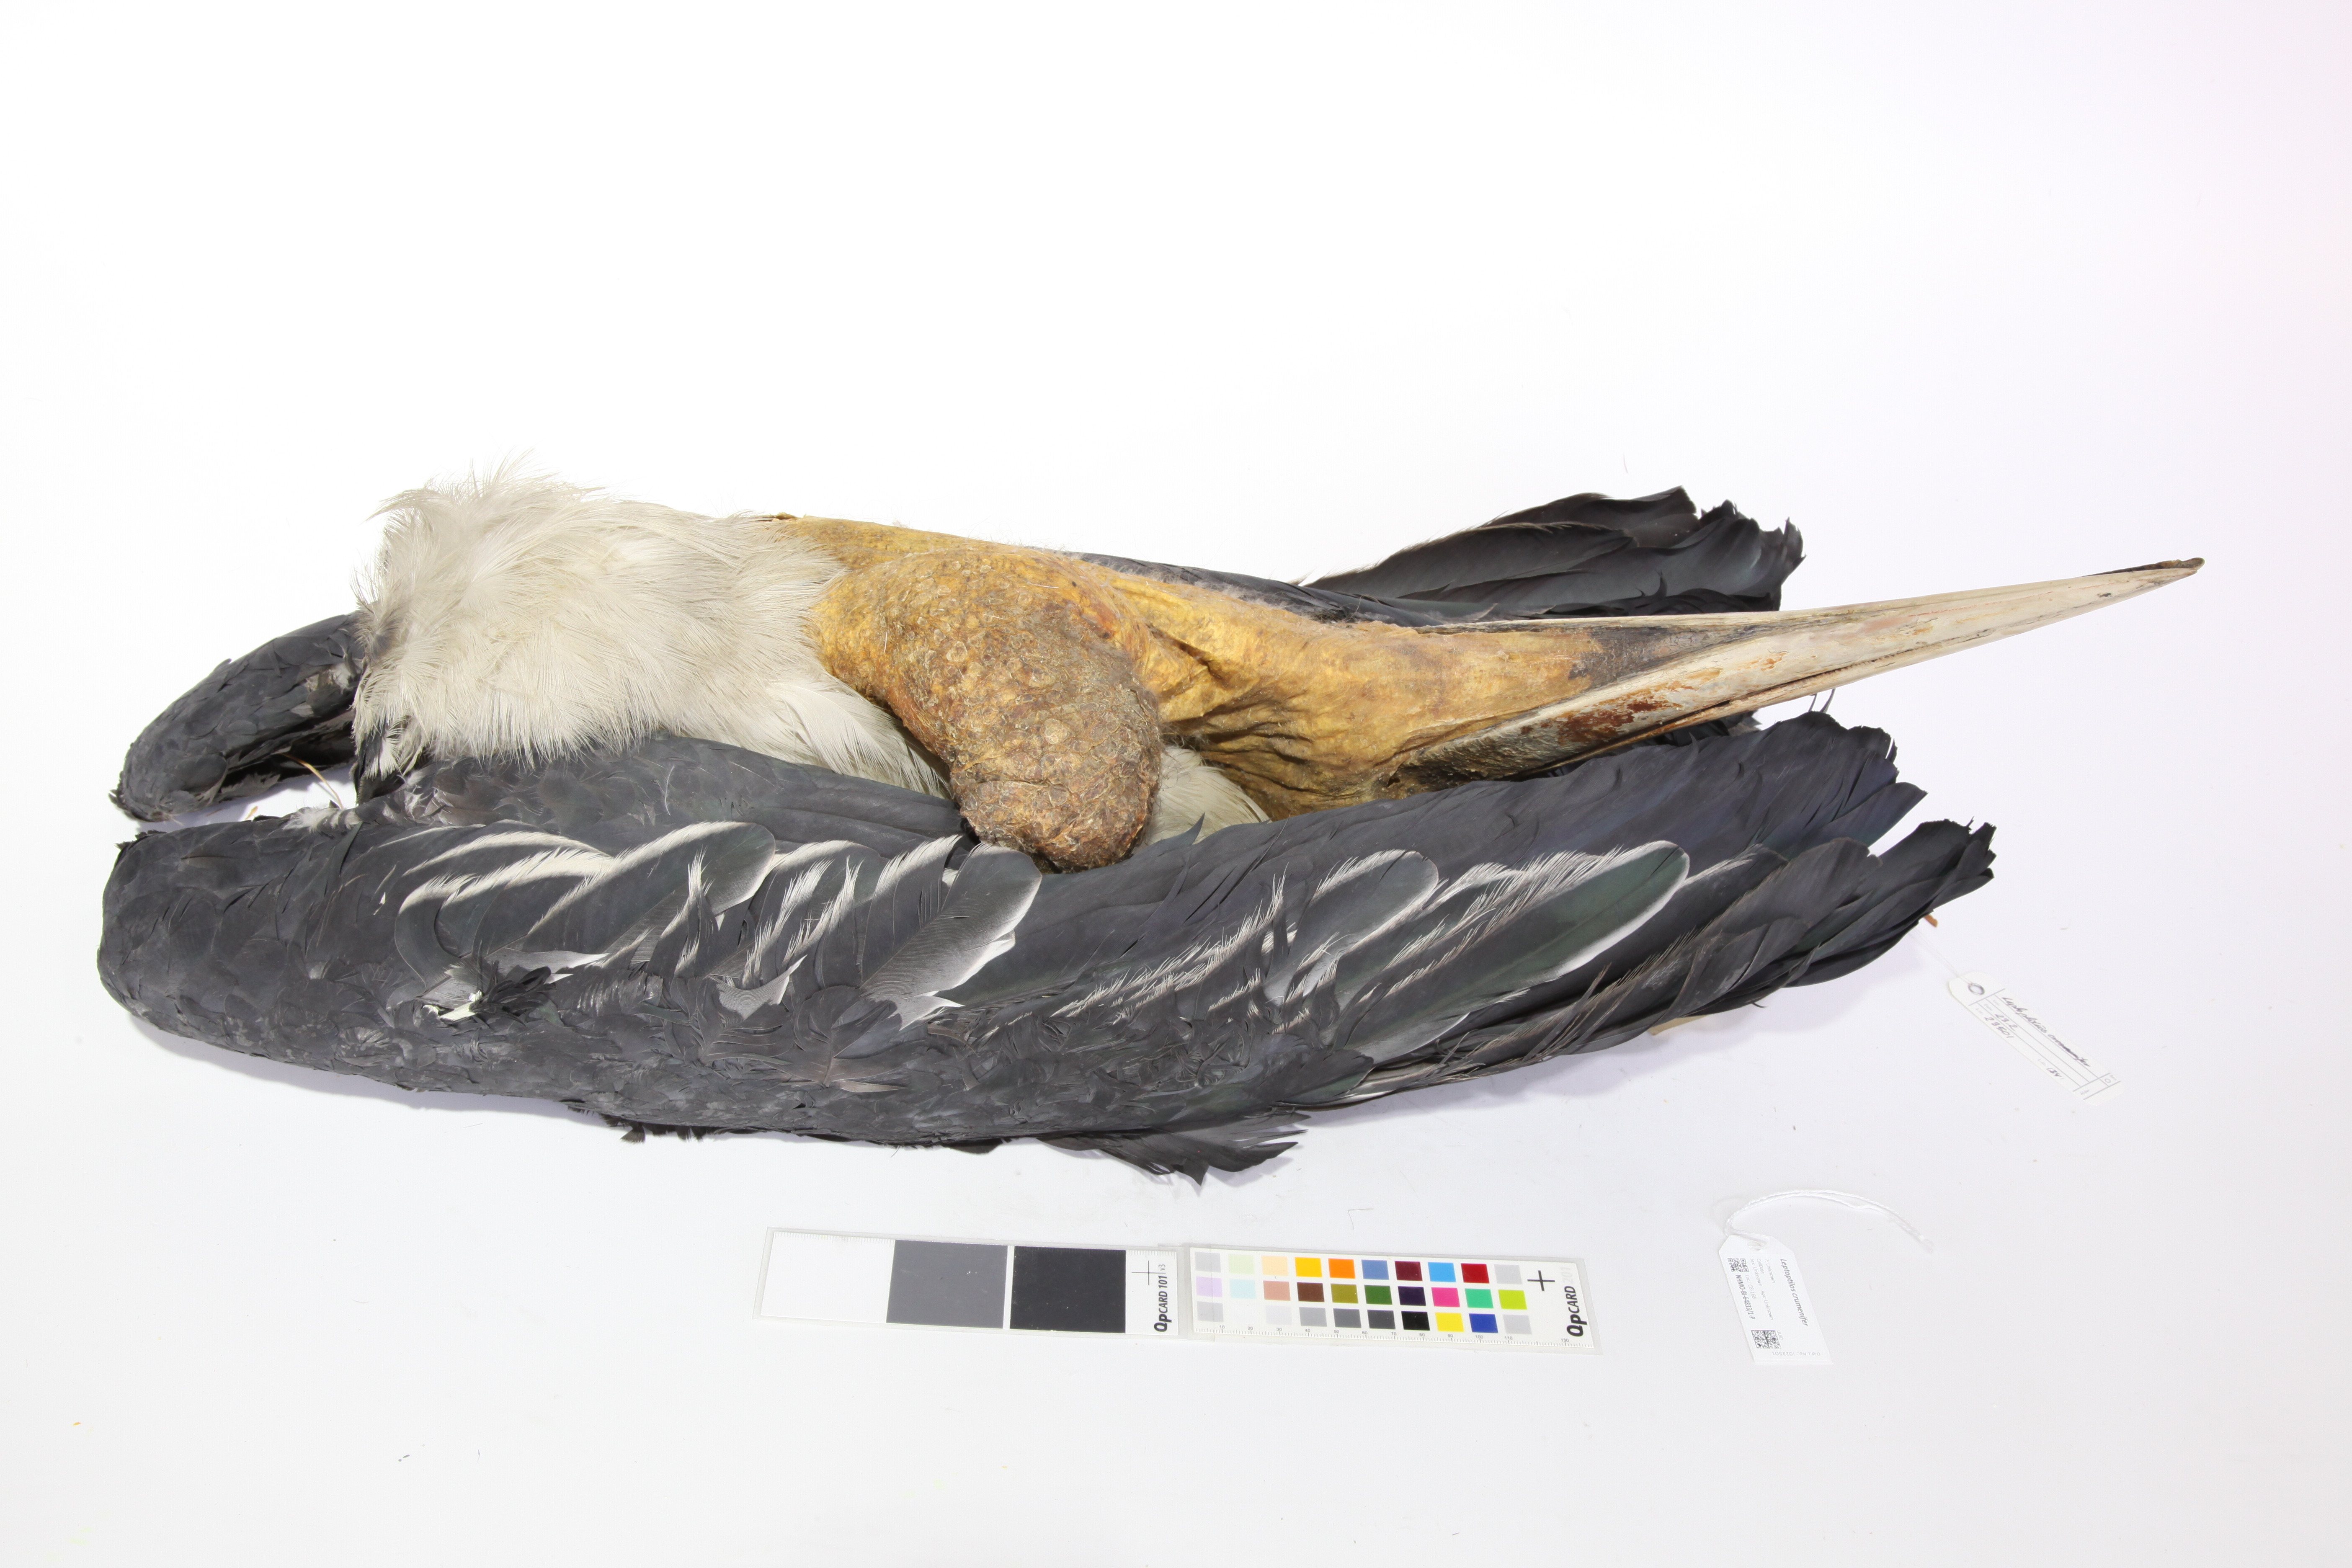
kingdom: Animalia
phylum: Chordata
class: Aves
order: Ciconiiformes
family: Ciconiidae
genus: Leptoptilos
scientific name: Leptoptilos crumenifer
